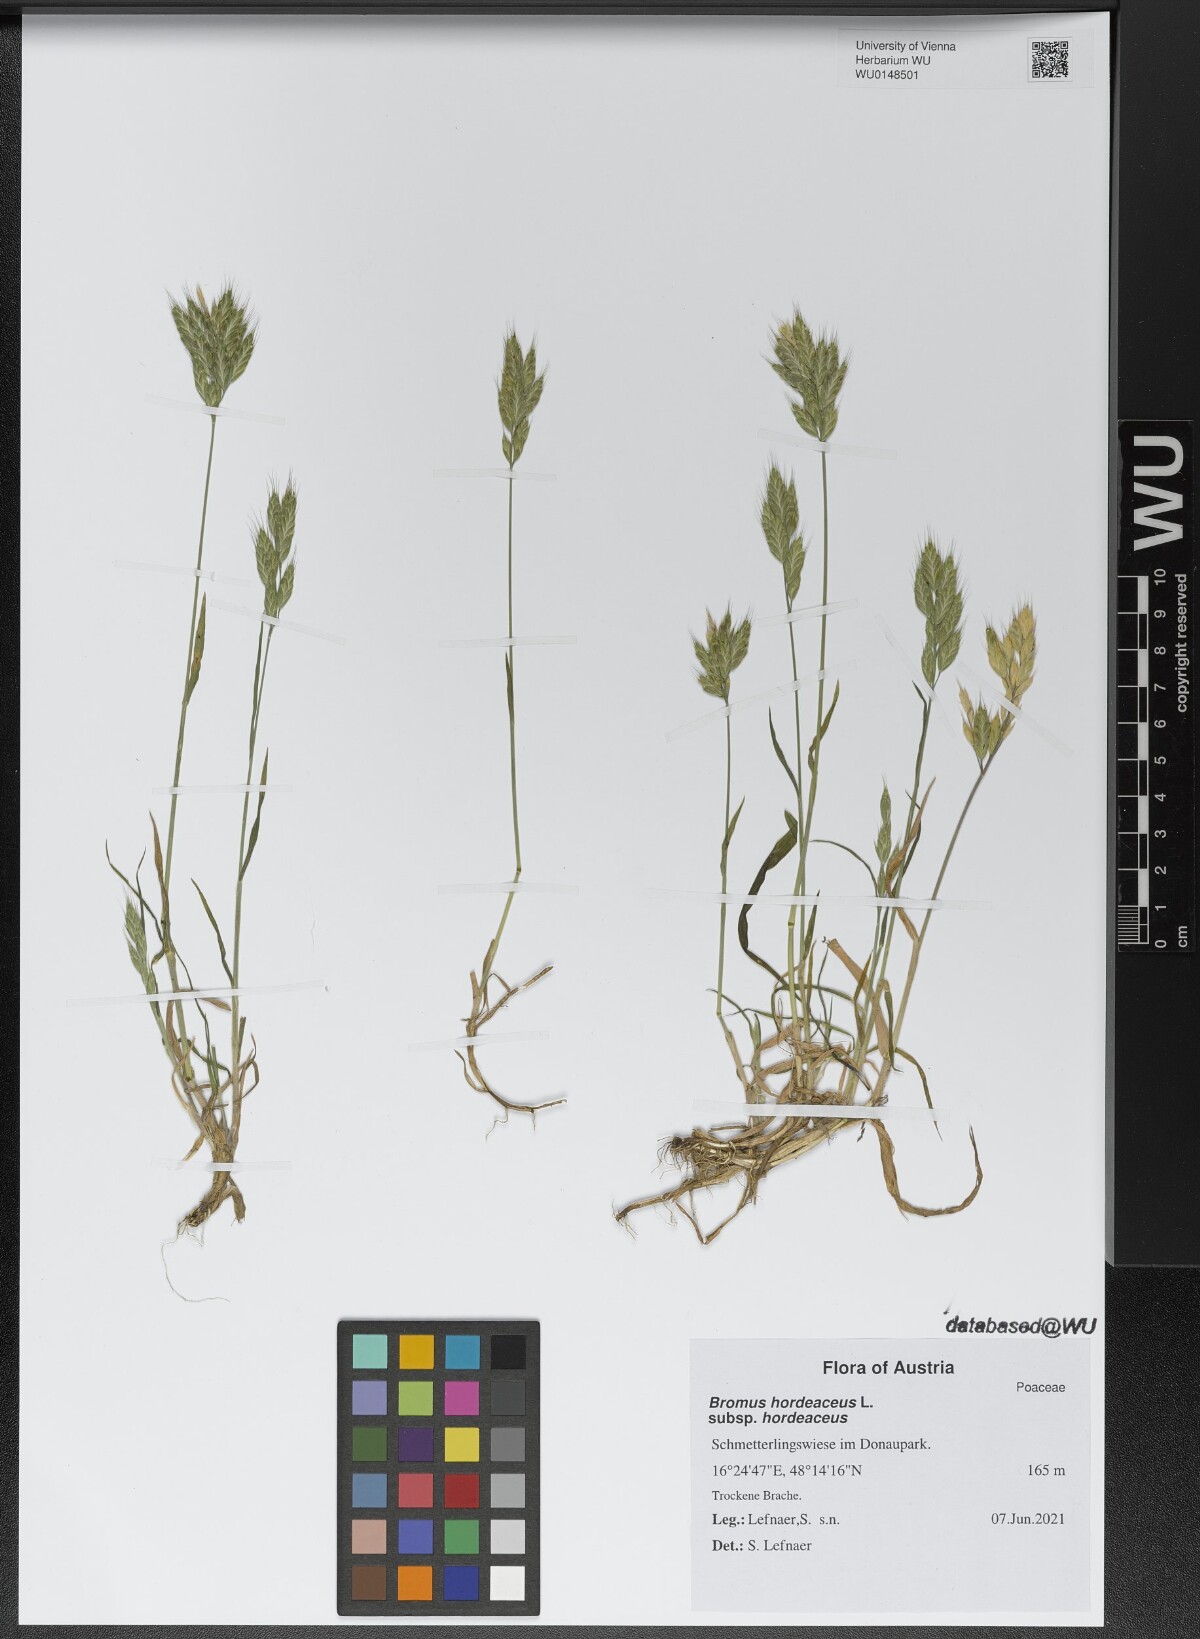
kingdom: Plantae
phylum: Tracheophyta
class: Liliopsida
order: Poales
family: Poaceae
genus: Bromus
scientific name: Bromus hordeaceus
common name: Soft brome
